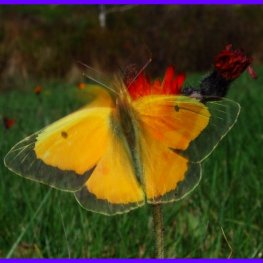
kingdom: Animalia
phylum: Arthropoda
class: Insecta
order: Lepidoptera
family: Pieridae
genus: Colias
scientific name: Colias eurytheme
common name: Orange Sulphur
